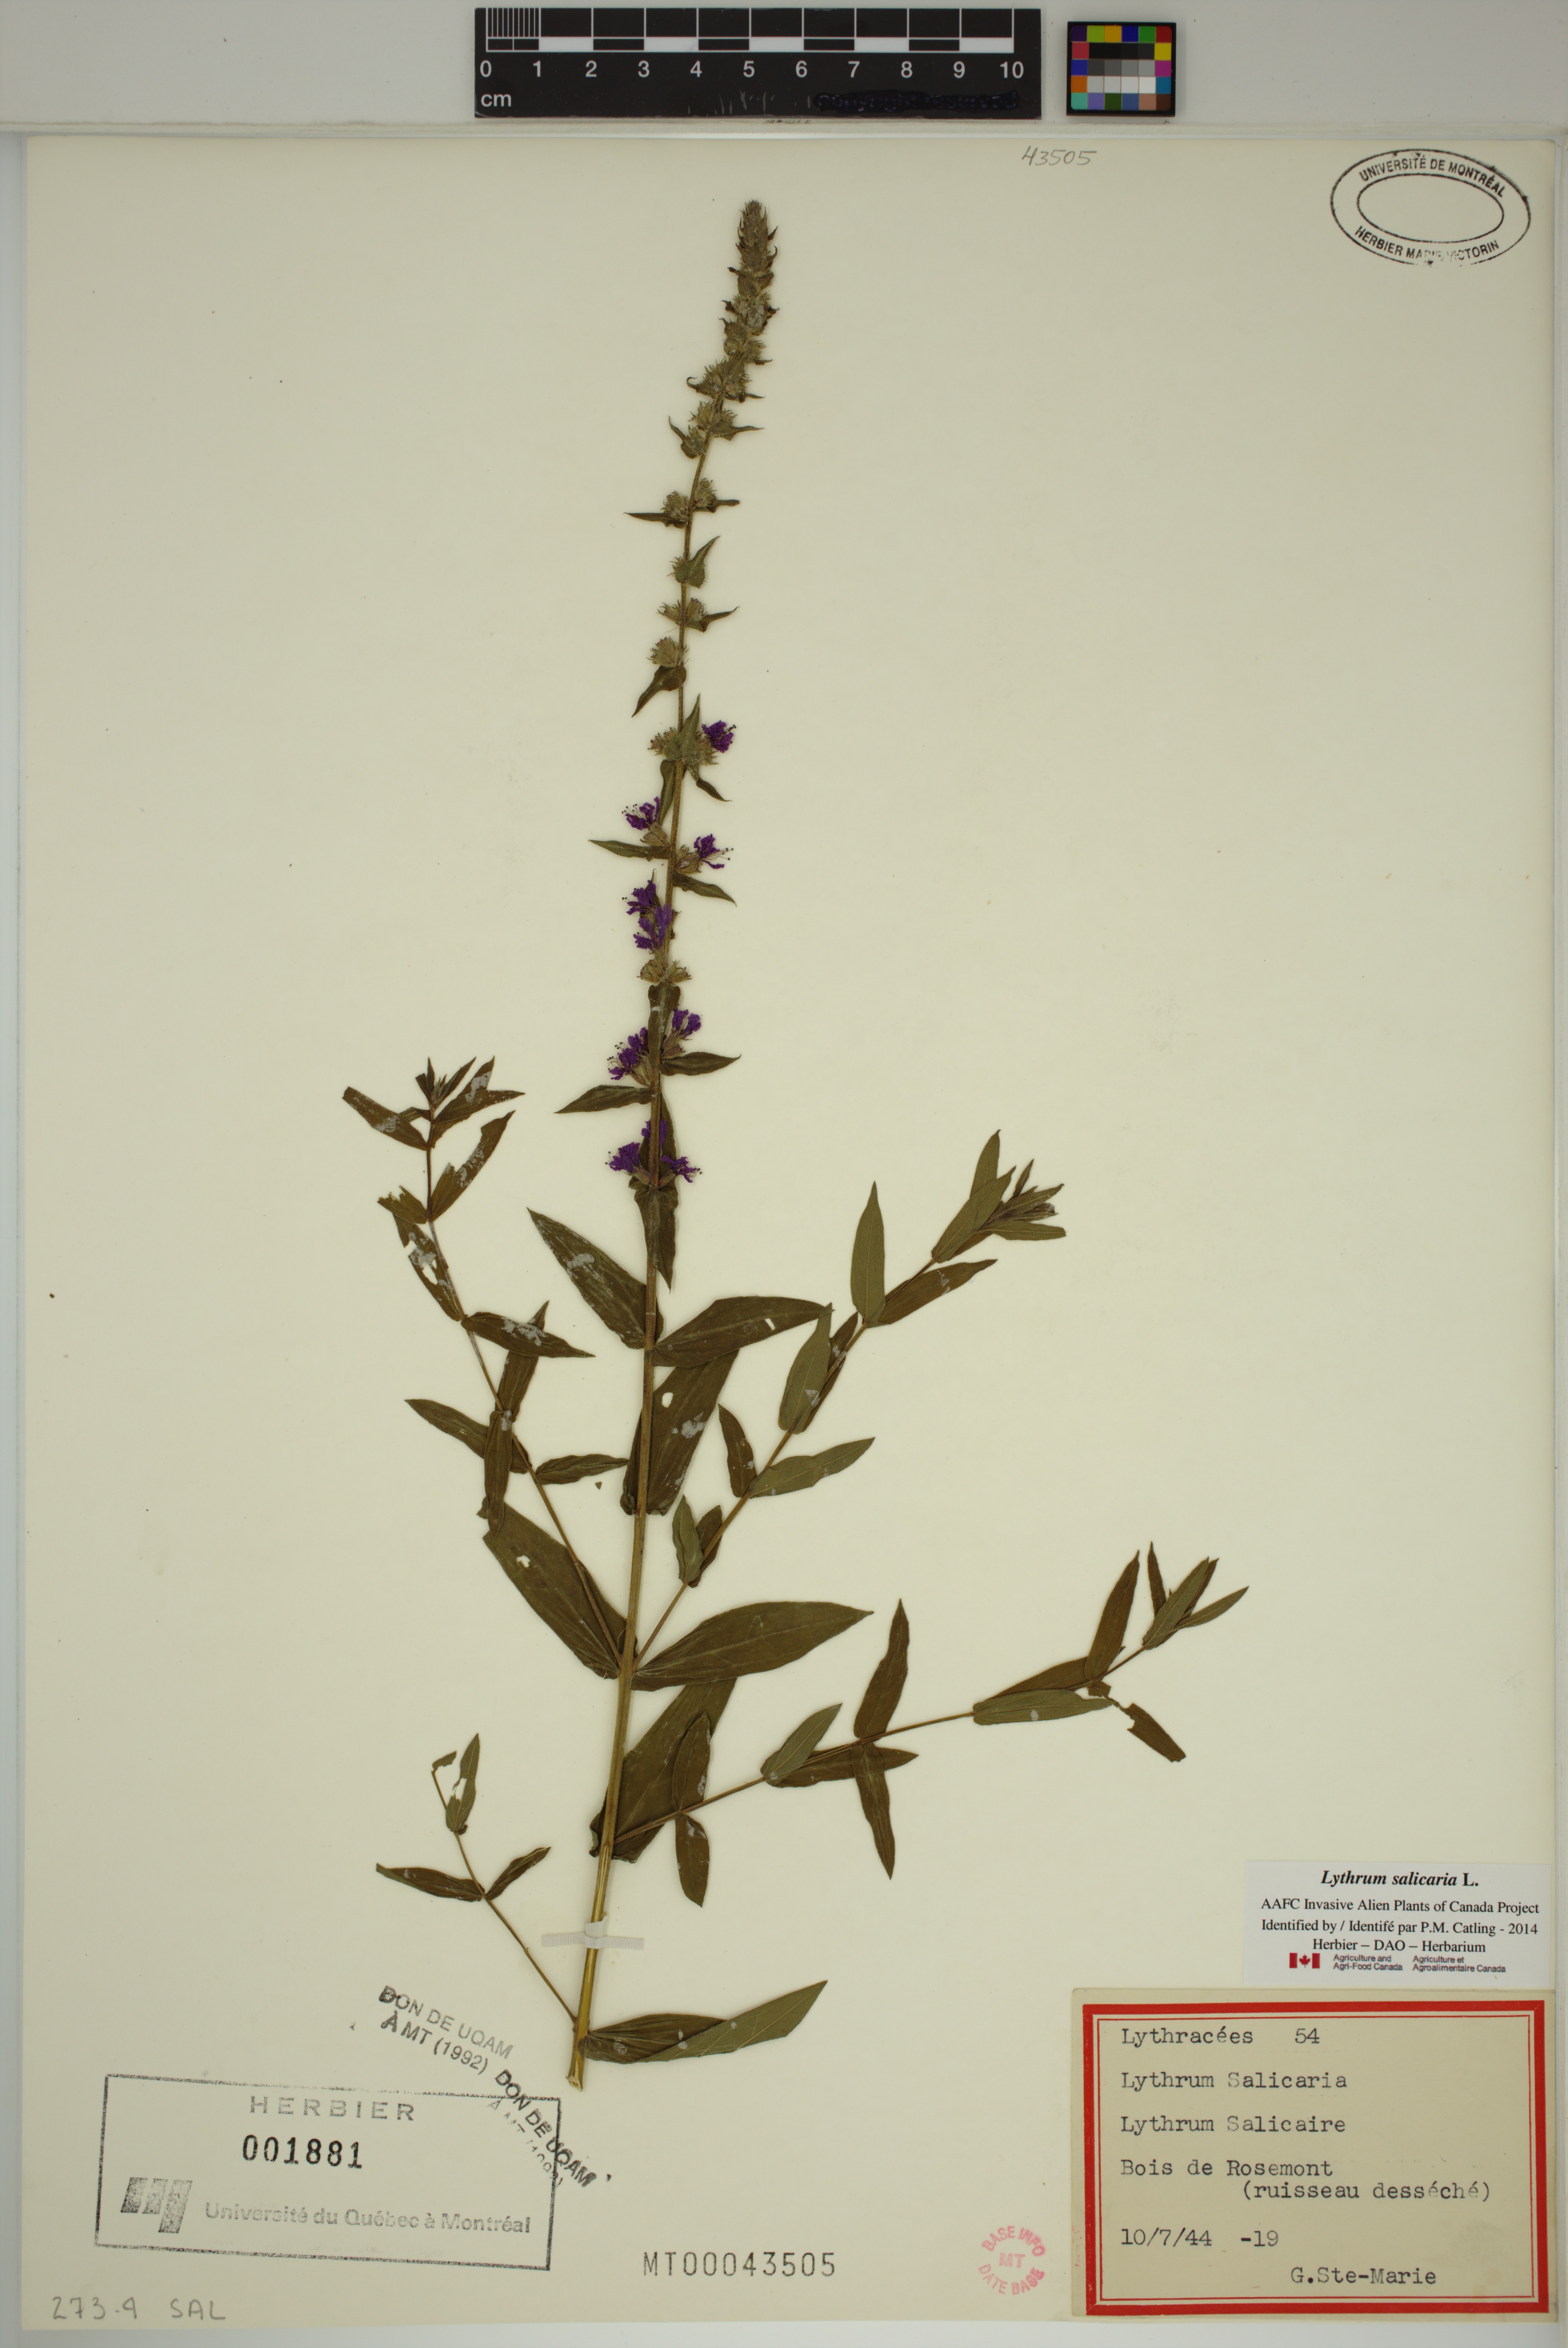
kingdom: Plantae
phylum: Tracheophyta
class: Magnoliopsida
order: Myrtales
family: Lythraceae
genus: Lythrum
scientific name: Lythrum salicaria
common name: Purple loosestrife
